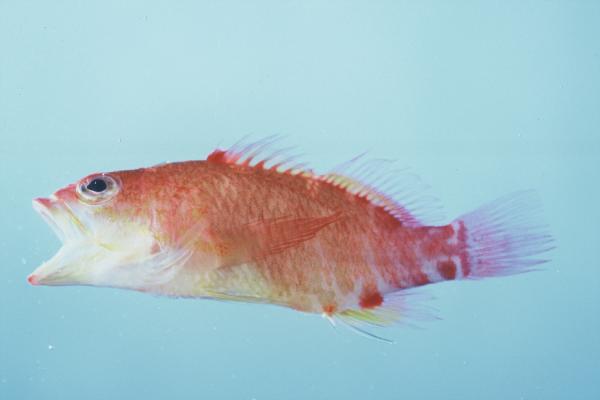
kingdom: Animalia
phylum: Chordata
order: Perciformes
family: Serranidae
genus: Plectranthias
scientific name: Plectranthias winniensis
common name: Redblotch perchlet
